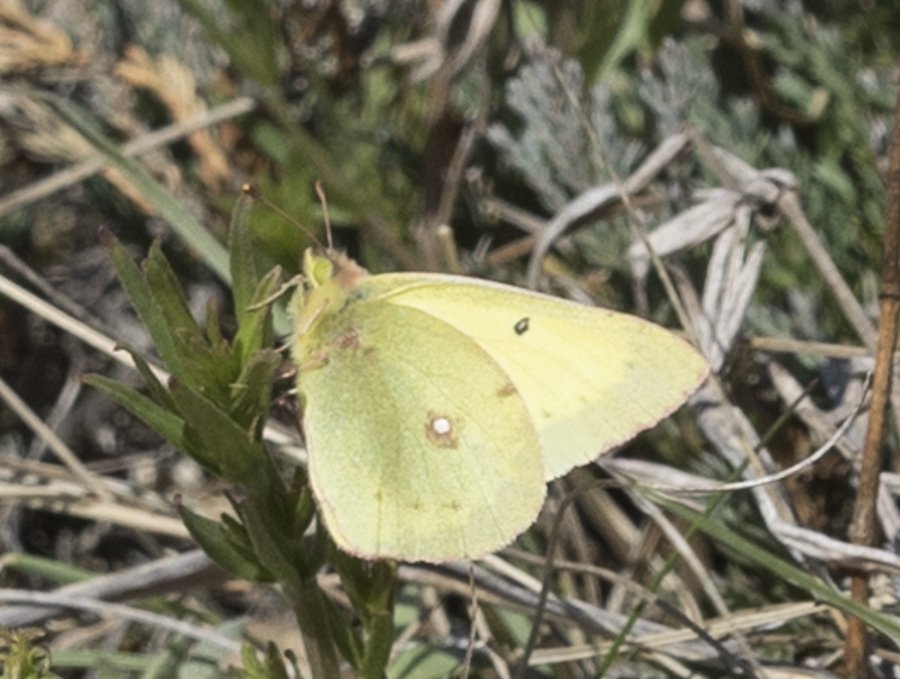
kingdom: Animalia
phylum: Arthropoda
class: Insecta
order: Lepidoptera
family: Pieridae
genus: Colias
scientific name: Colias philodice
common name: Clouded Sulphur
